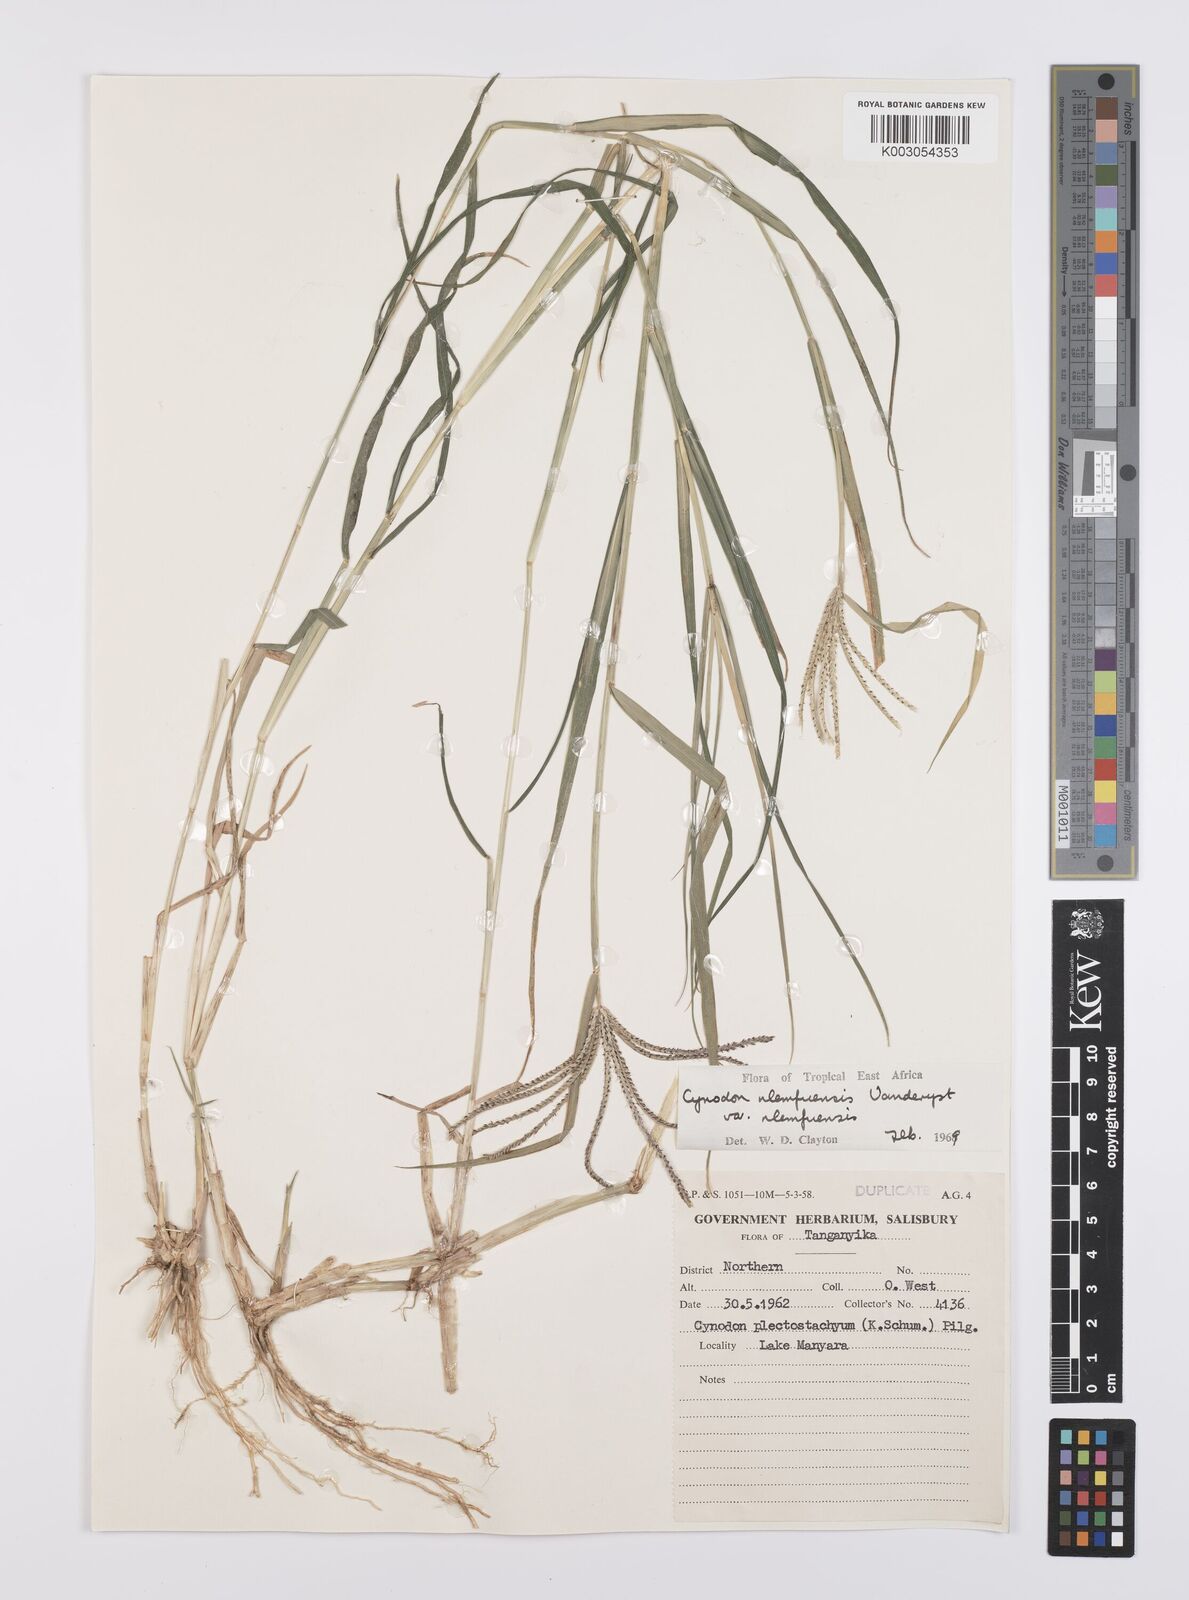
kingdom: Plantae
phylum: Tracheophyta
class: Liliopsida
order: Poales
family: Poaceae
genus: Cynodon
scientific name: Cynodon nlemfuensis
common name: African bermudagrass
